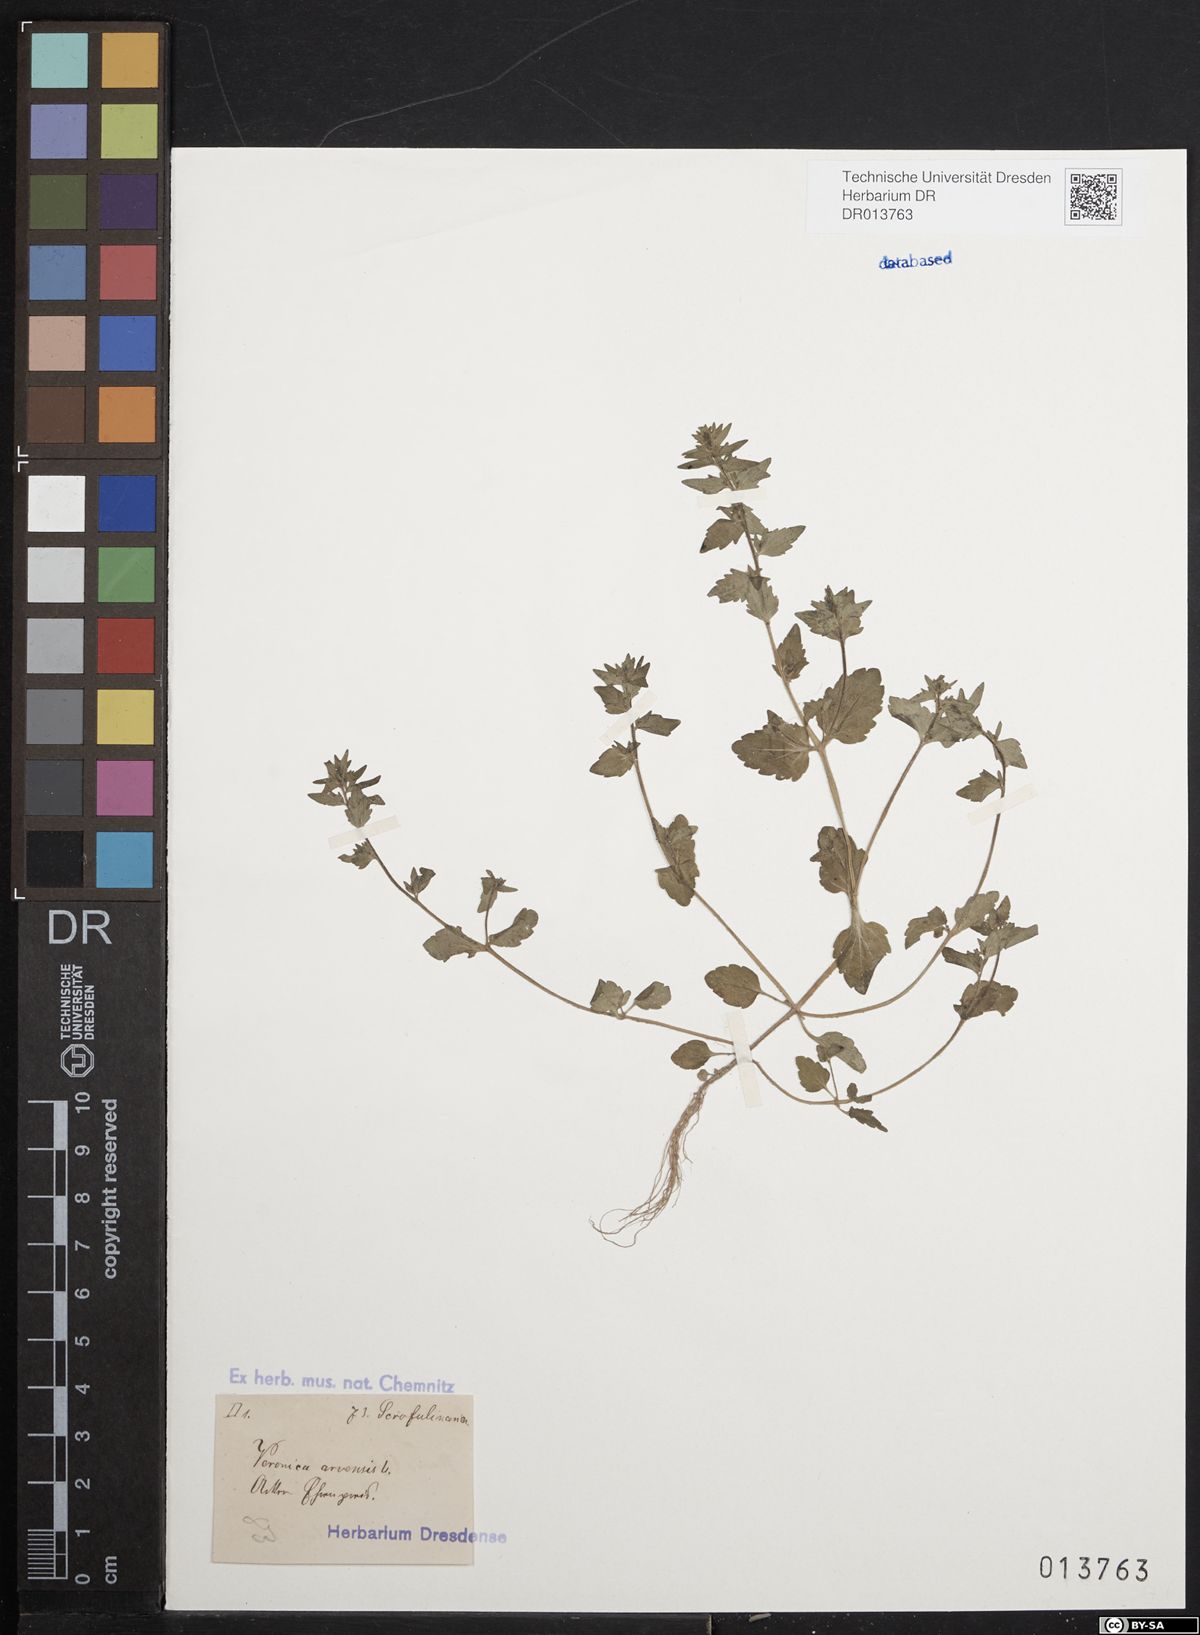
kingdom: Plantae
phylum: Tracheophyta
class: Magnoliopsida
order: Lamiales
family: Plantaginaceae
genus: Veronica
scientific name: Veronica arvensis
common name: Corn speedwell
